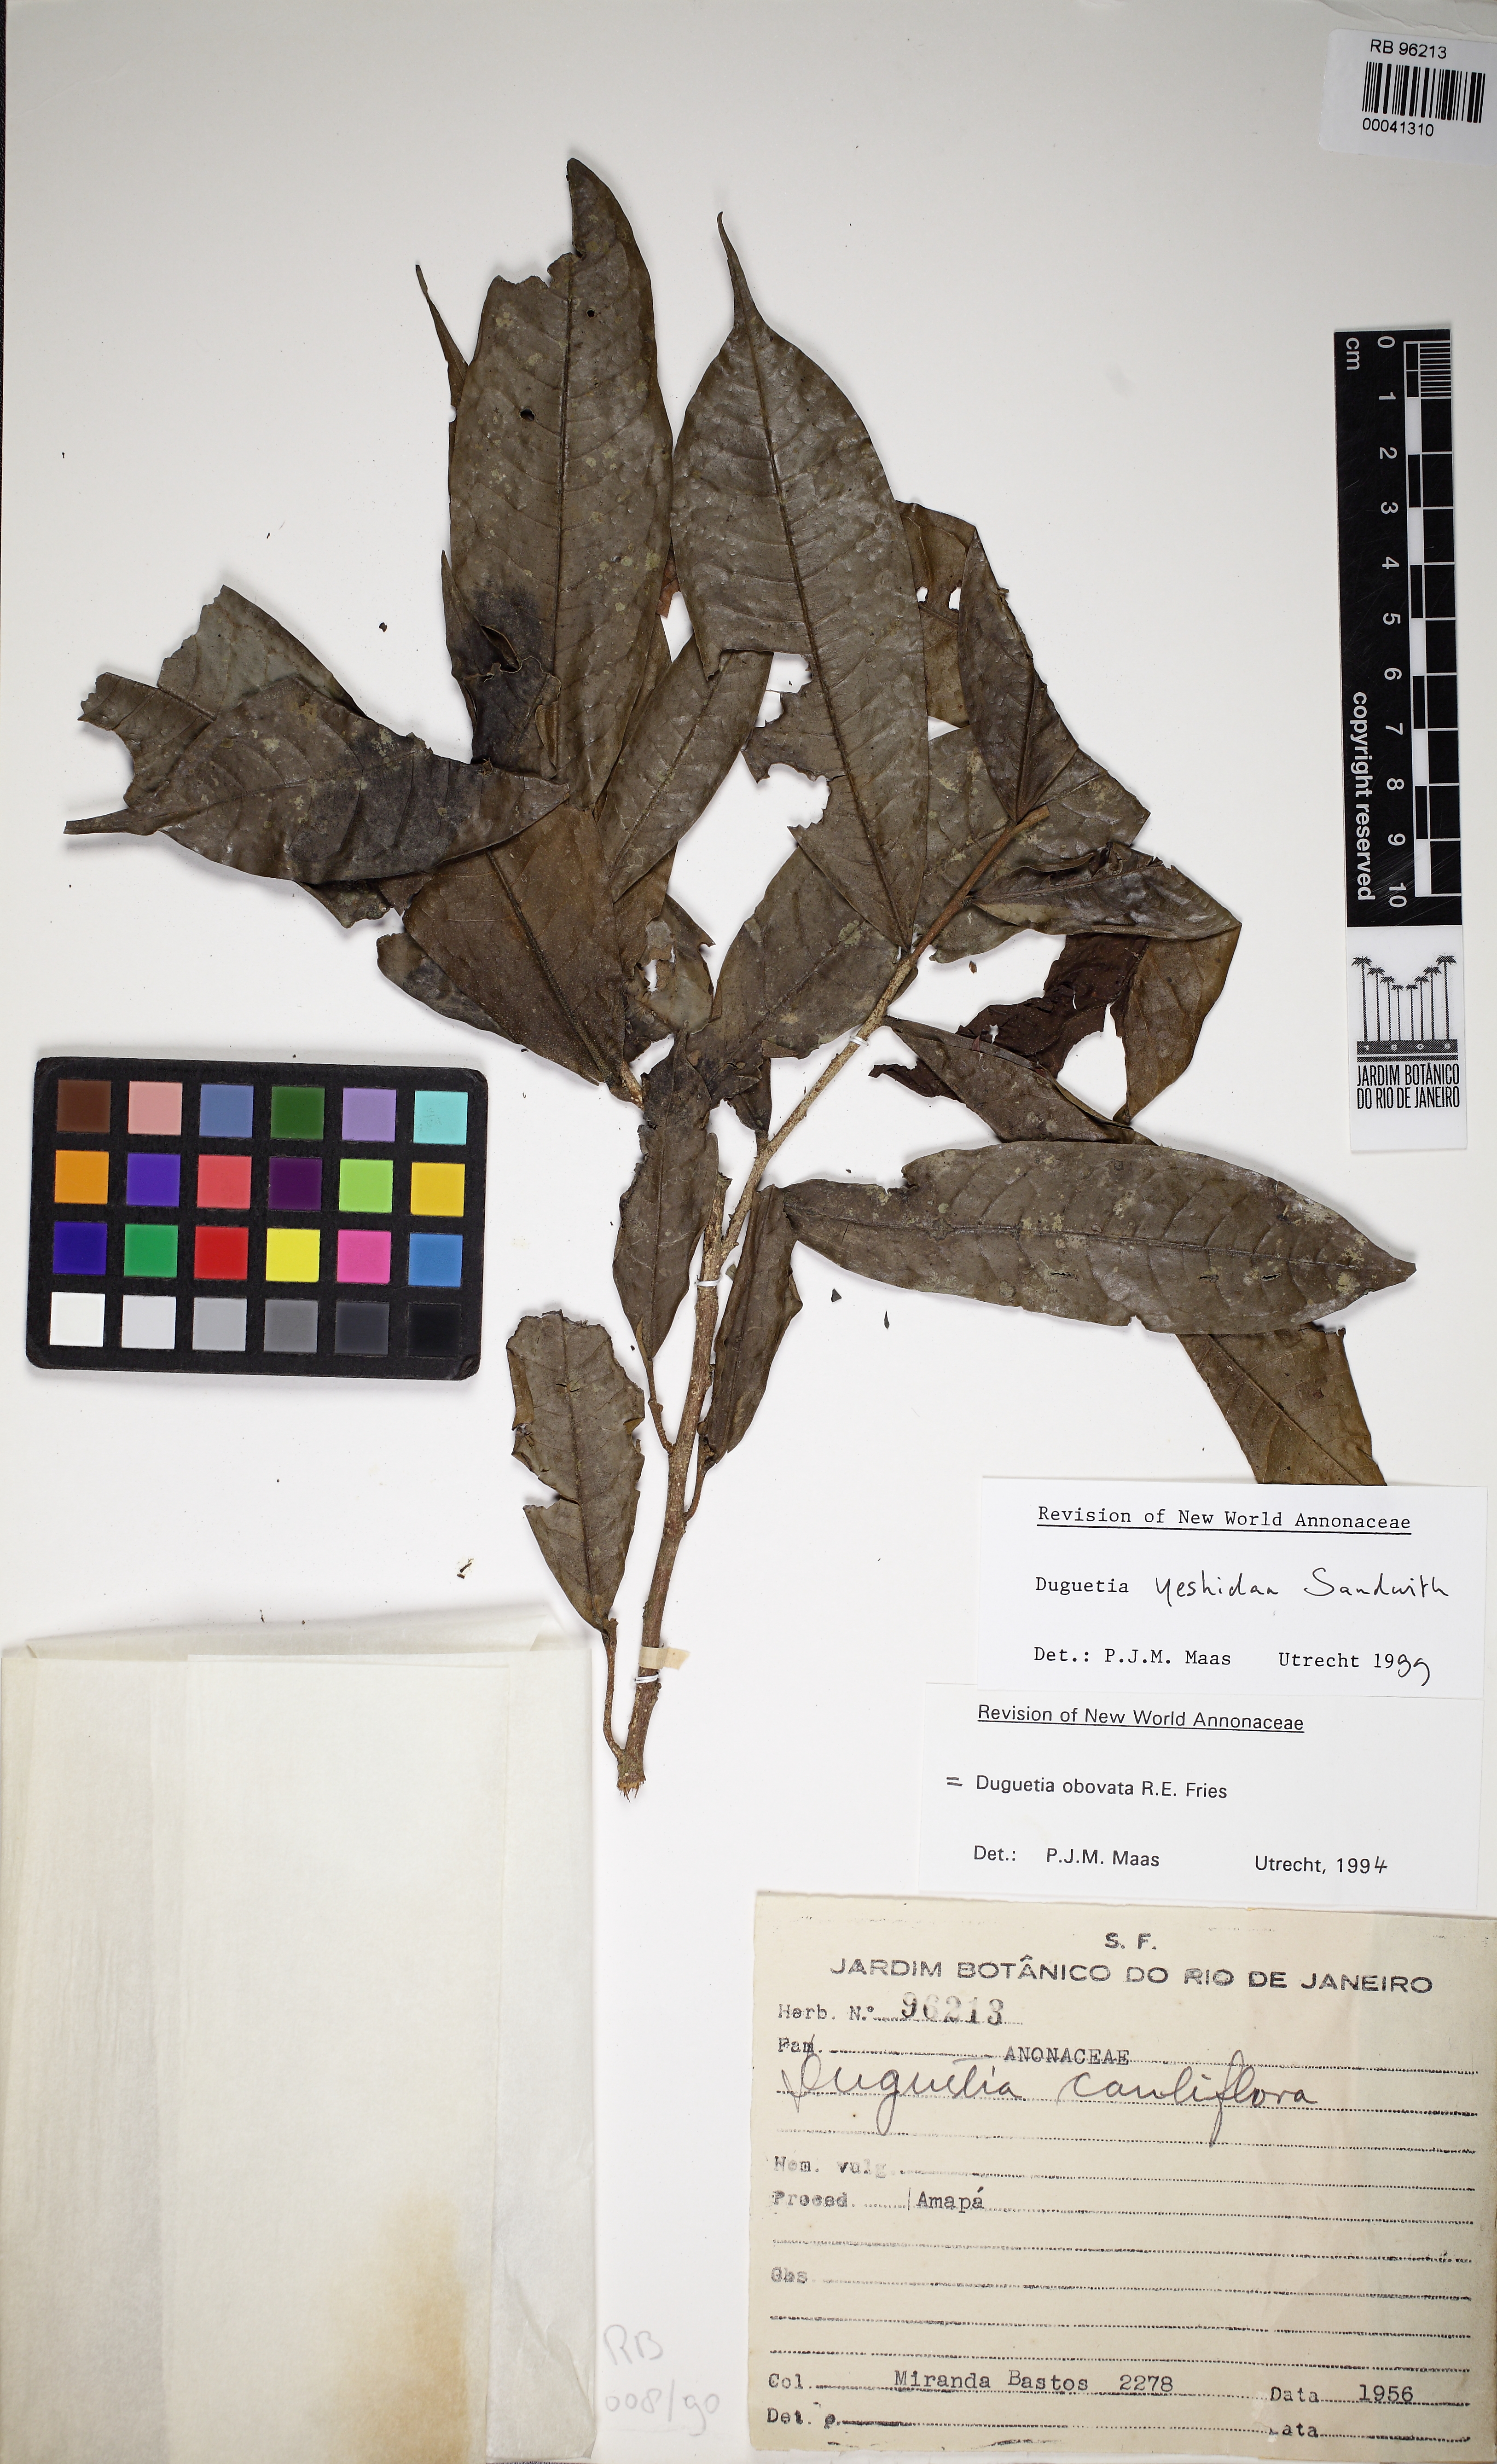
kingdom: Plantae
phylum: Tracheophyta
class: Magnoliopsida
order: Magnoliales
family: Annonaceae
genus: Duguetia
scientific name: Duguetia yeshidan
